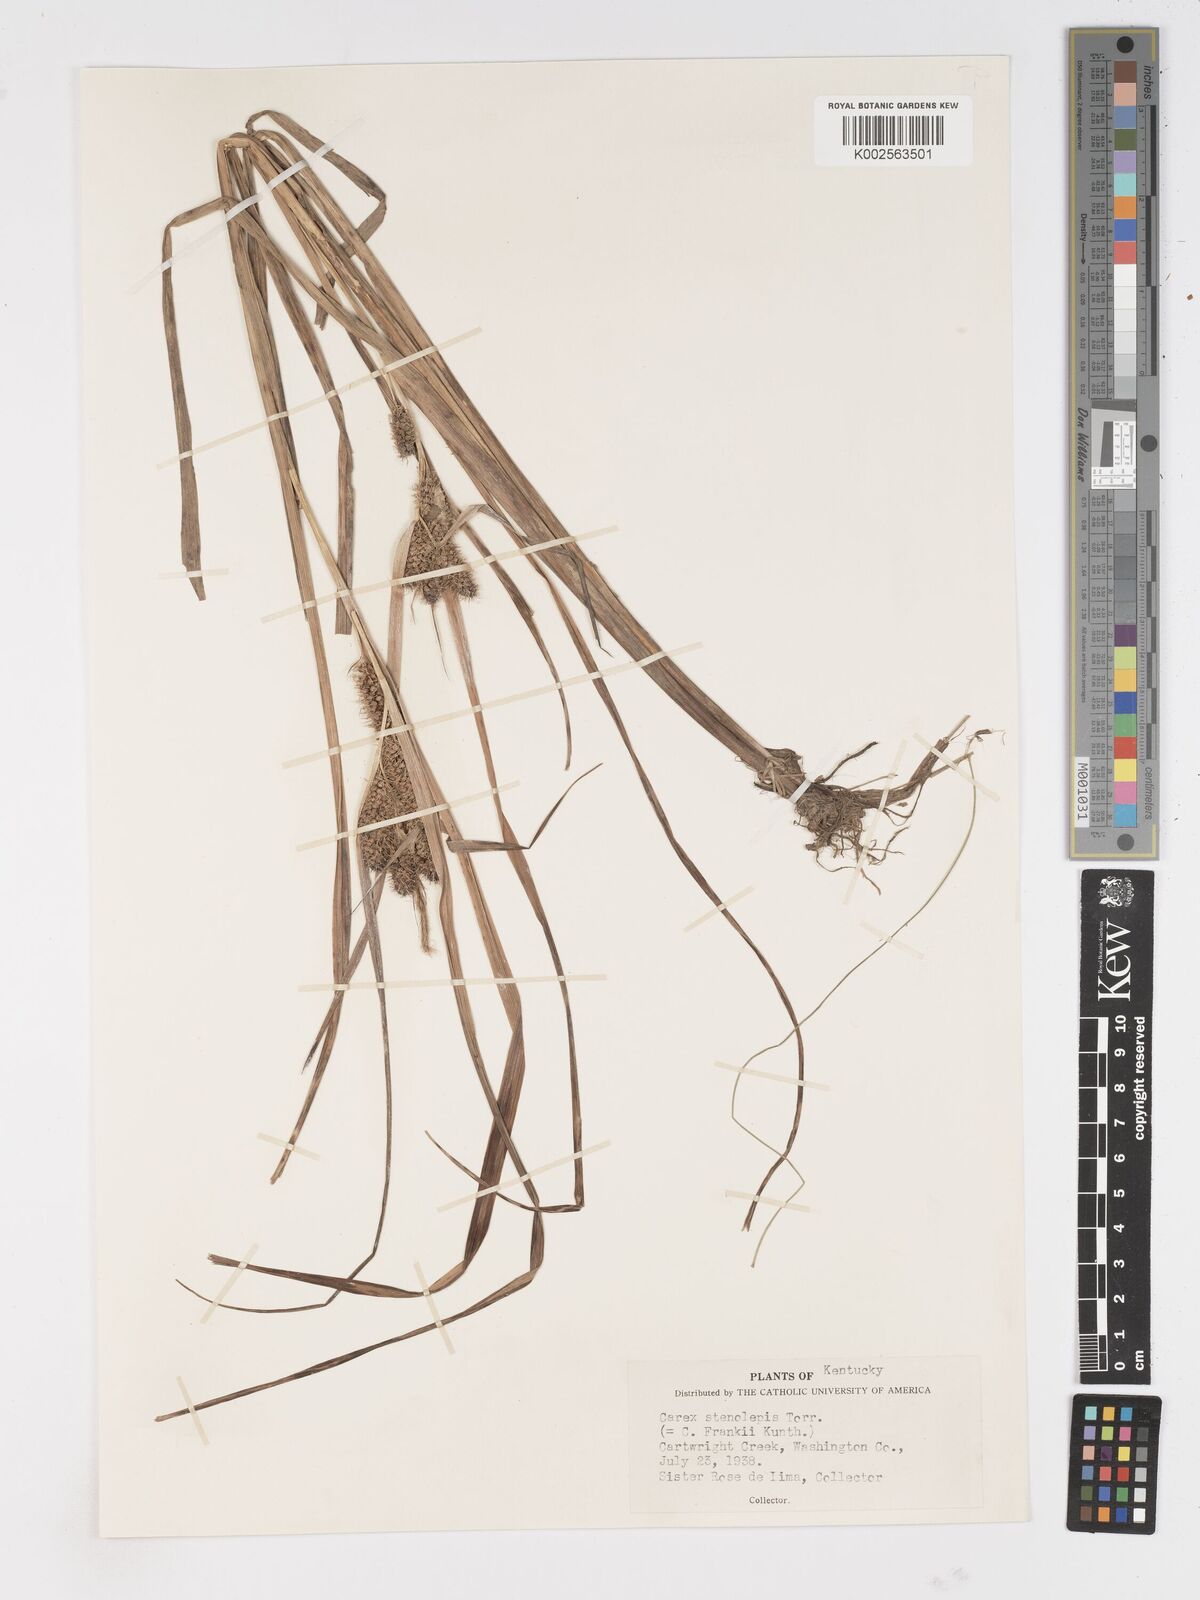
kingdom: Plantae
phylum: Tracheophyta
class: Liliopsida
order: Poales
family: Cyperaceae
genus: Carex
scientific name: Carex frankii
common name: Frank's sedge
